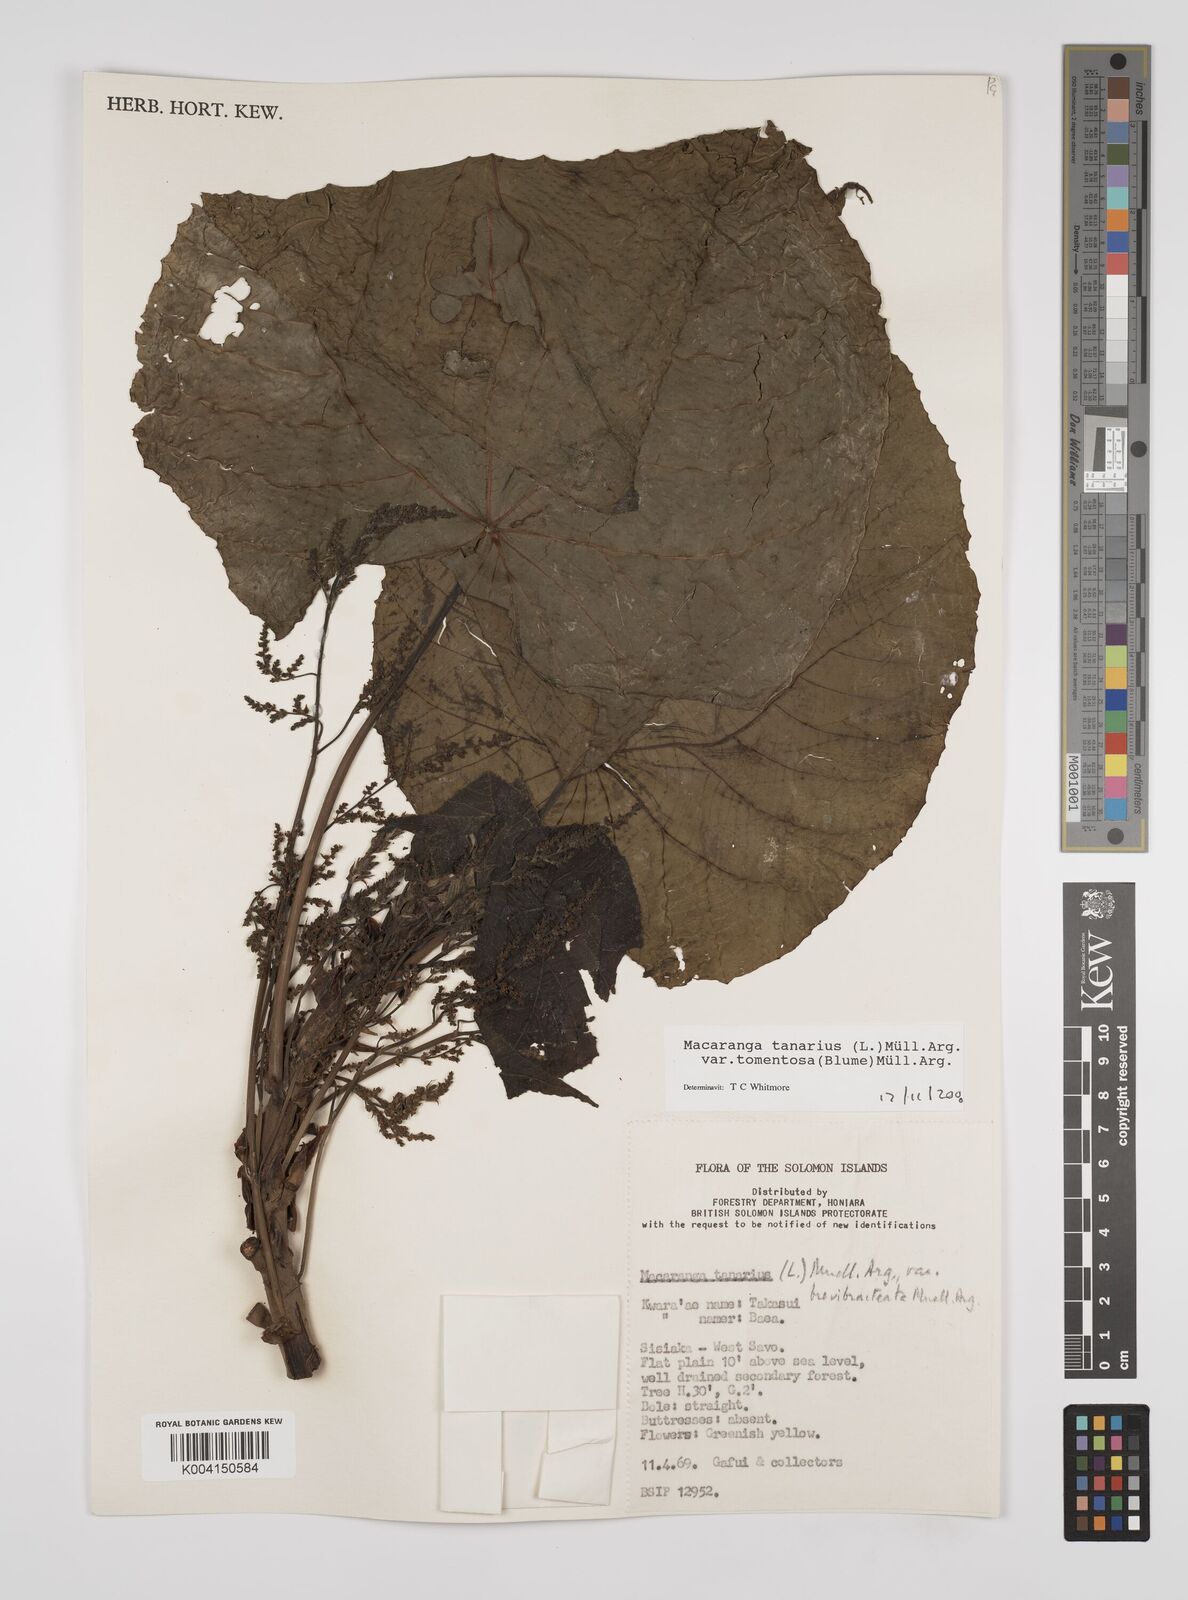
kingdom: Plantae
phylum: Tracheophyta
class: Magnoliopsida
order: Malpighiales
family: Euphorbiaceae
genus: Macaranga
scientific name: Macaranga tanarius
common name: Parasol leaf tree
